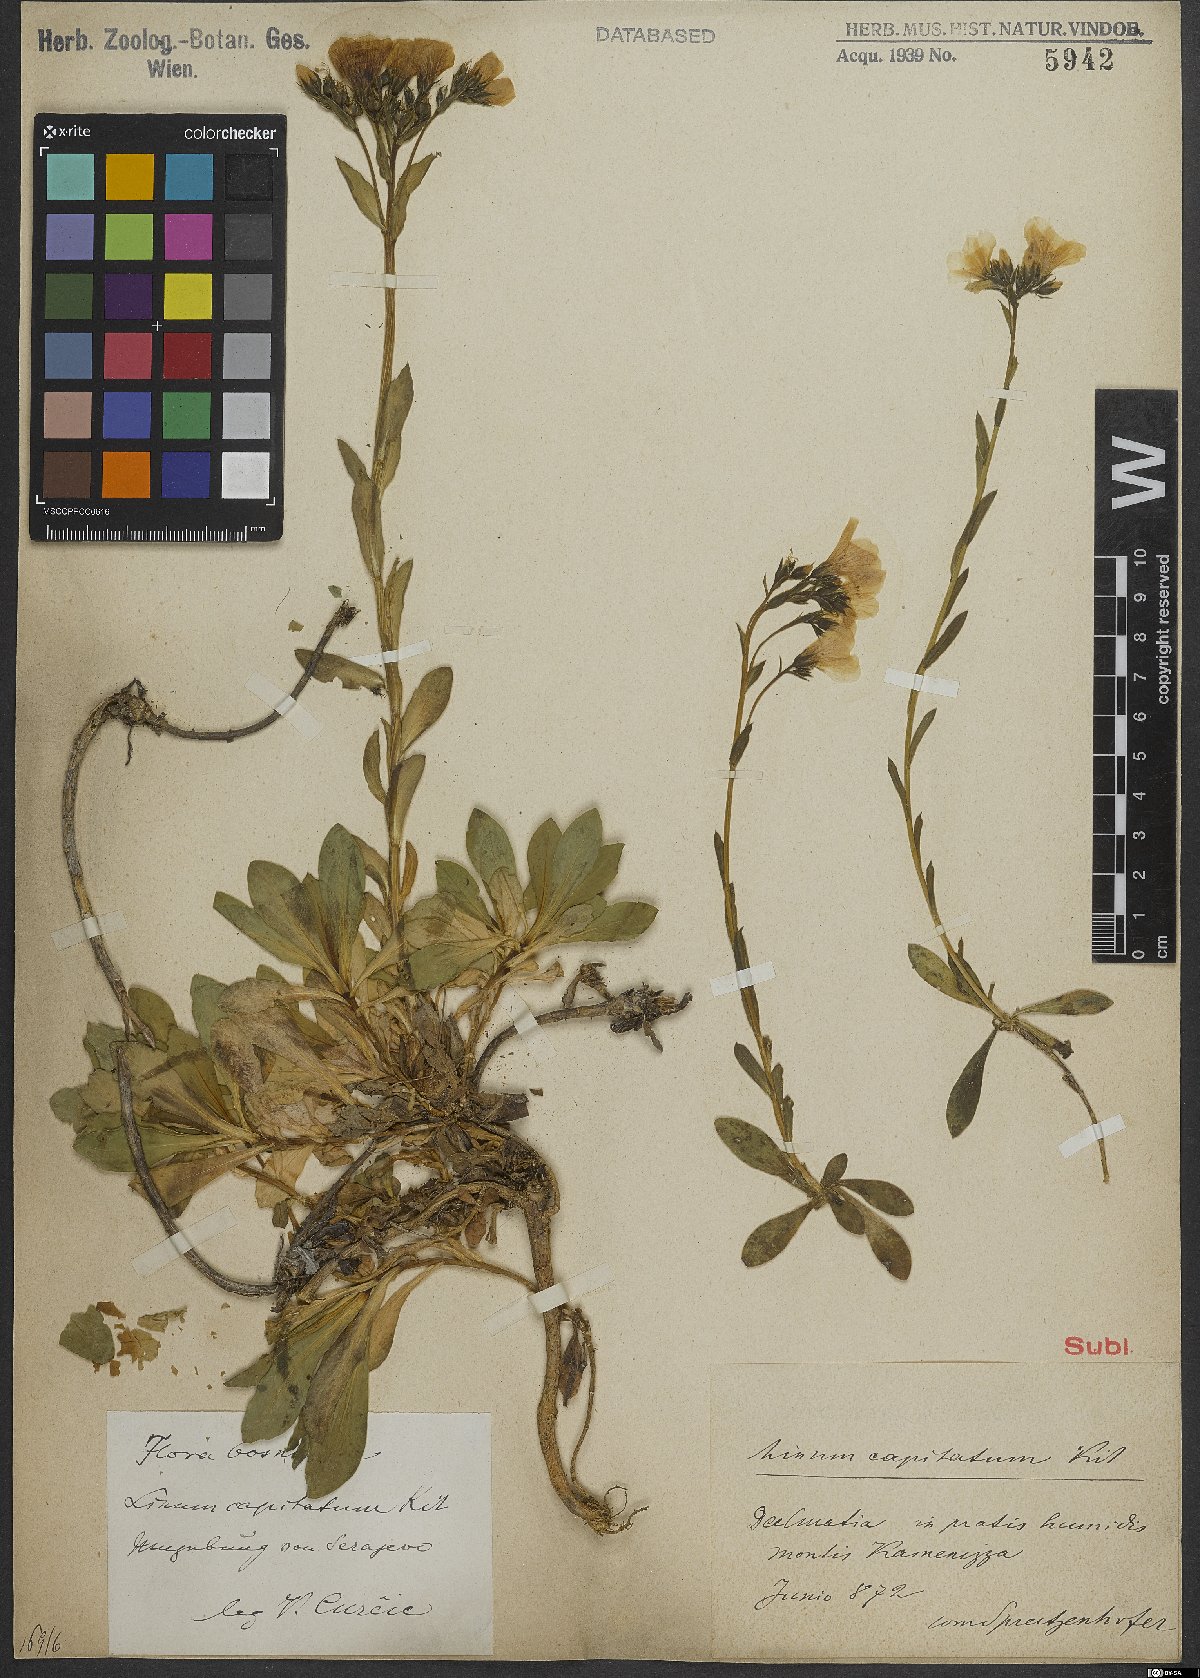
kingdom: Plantae
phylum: Tracheophyta
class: Magnoliopsida
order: Malpighiales
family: Linaceae
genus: Linum
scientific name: Linum capitatum
